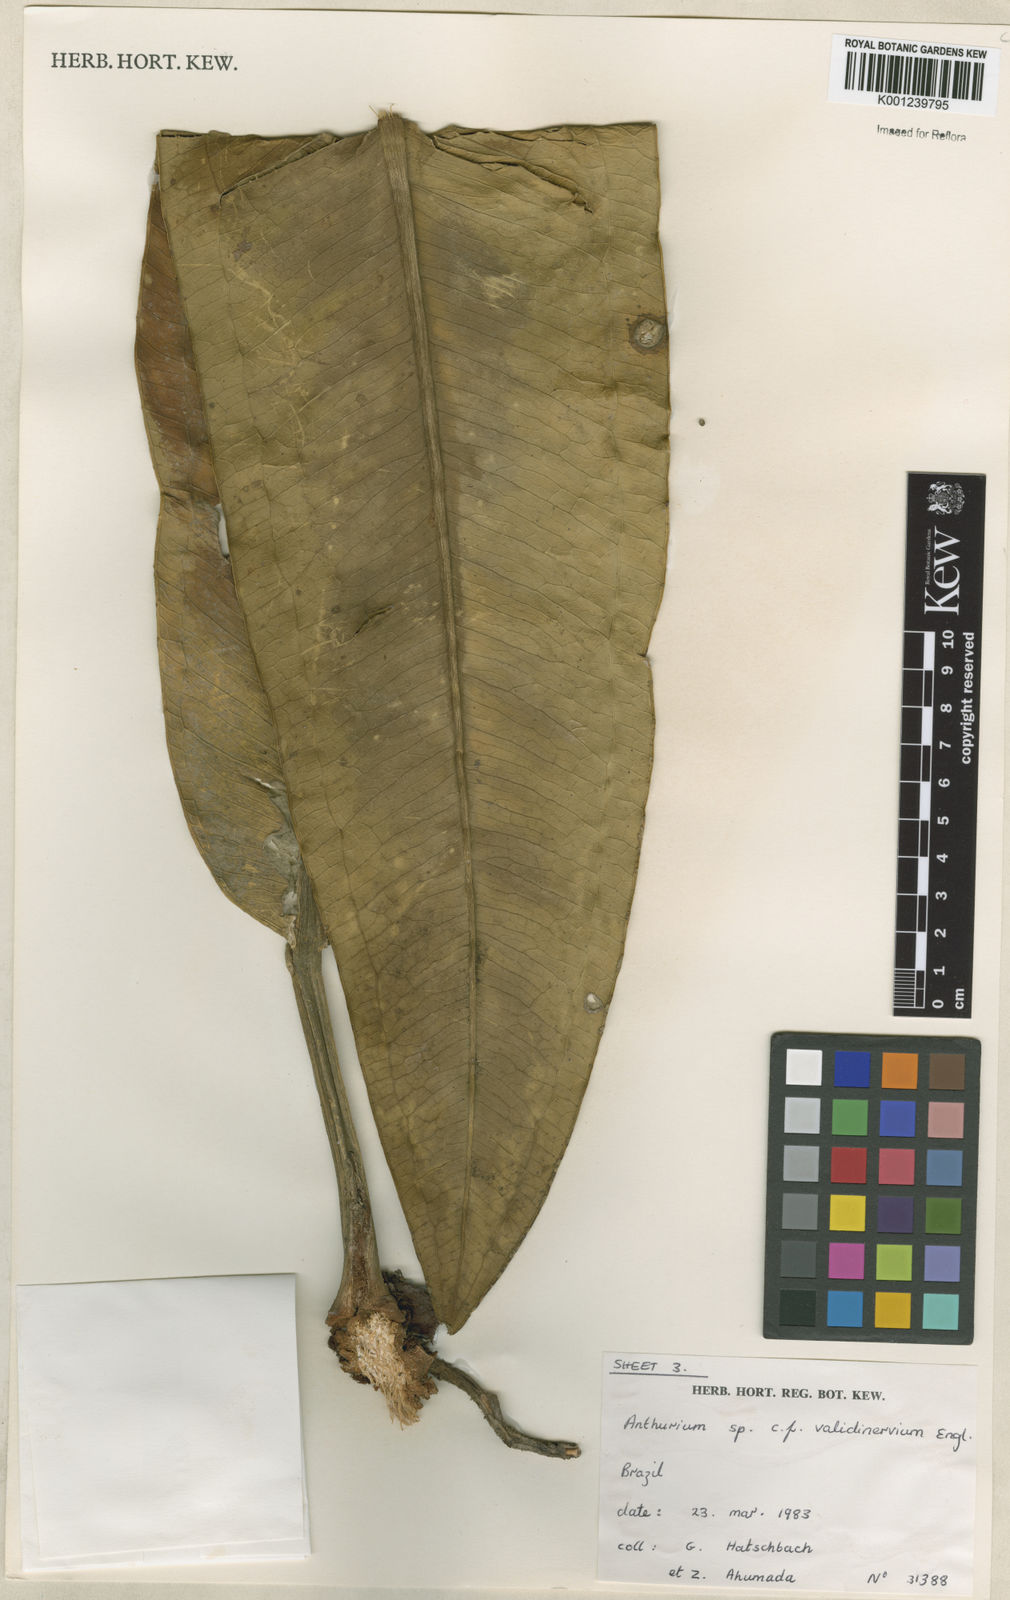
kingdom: Plantae
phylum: Tracheophyta
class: Liliopsida
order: Alismatales
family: Araceae
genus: Anthurium
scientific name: Anthurium
